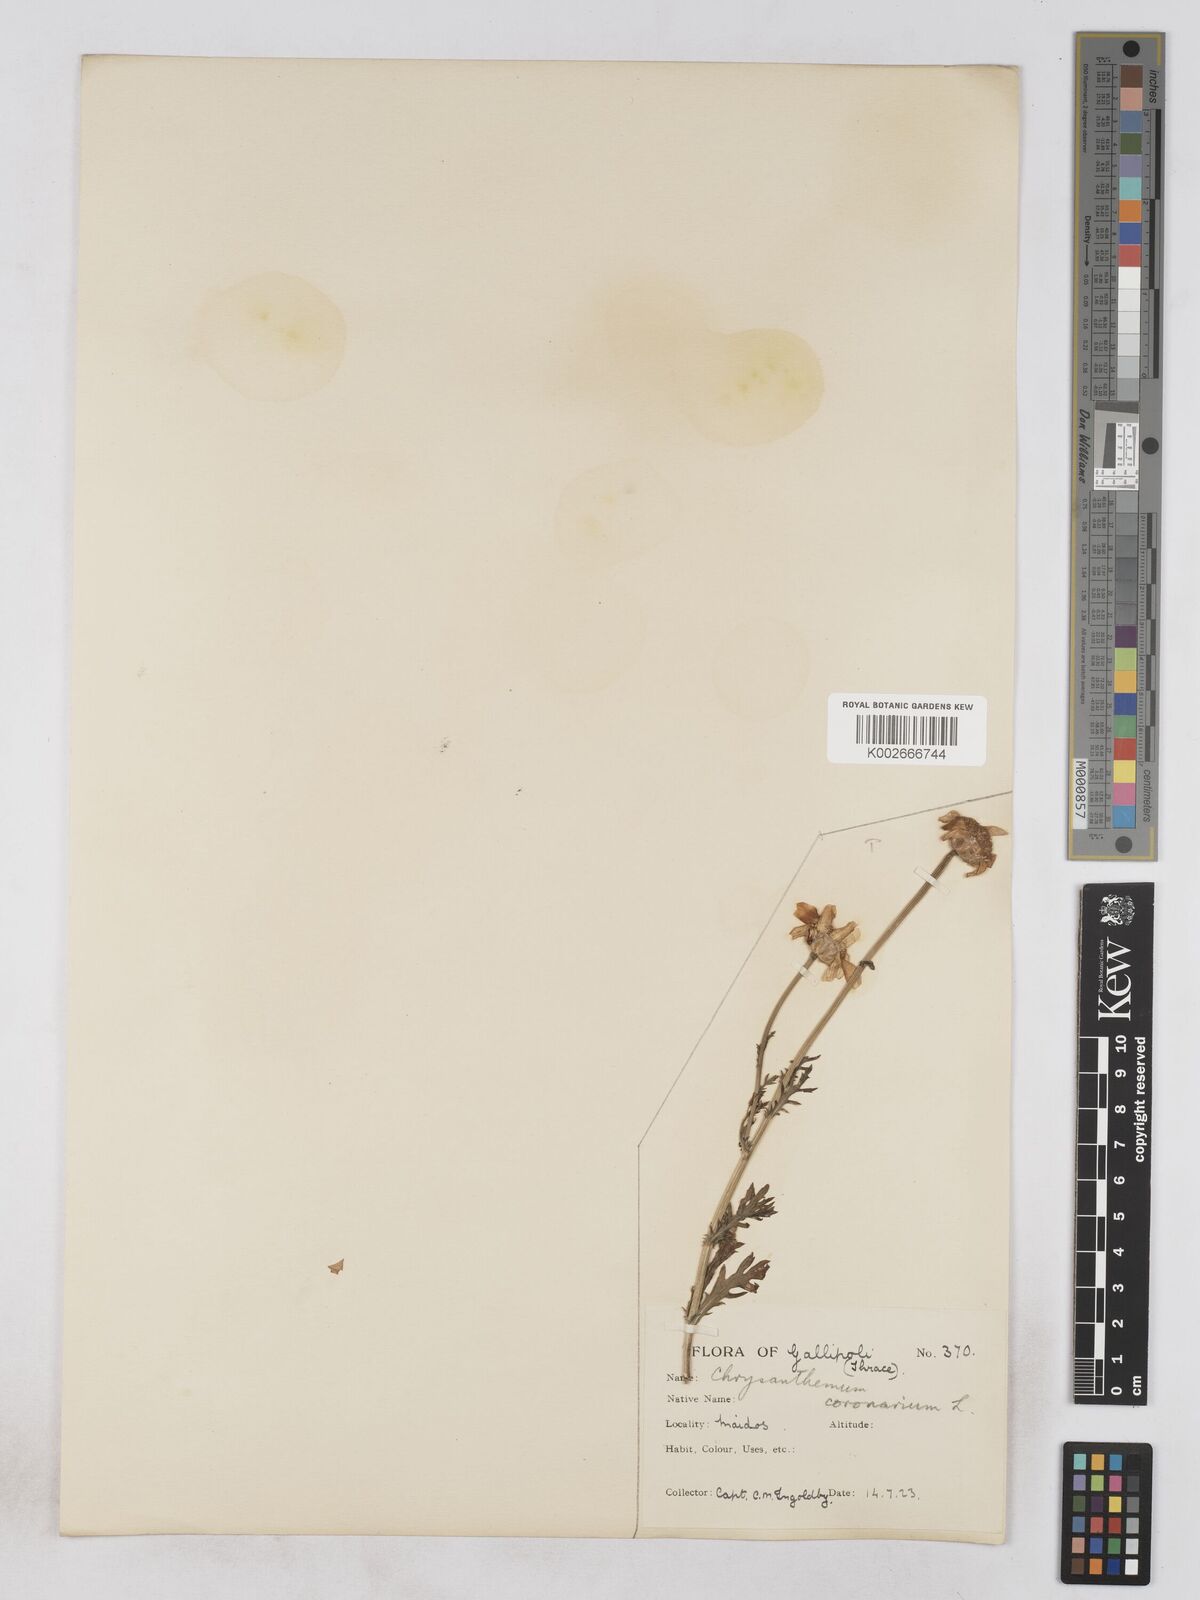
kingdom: Plantae
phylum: Tracheophyta
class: Magnoliopsida
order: Asterales
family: Asteraceae
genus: Glebionis
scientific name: Glebionis coronaria
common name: Crowndaisy
